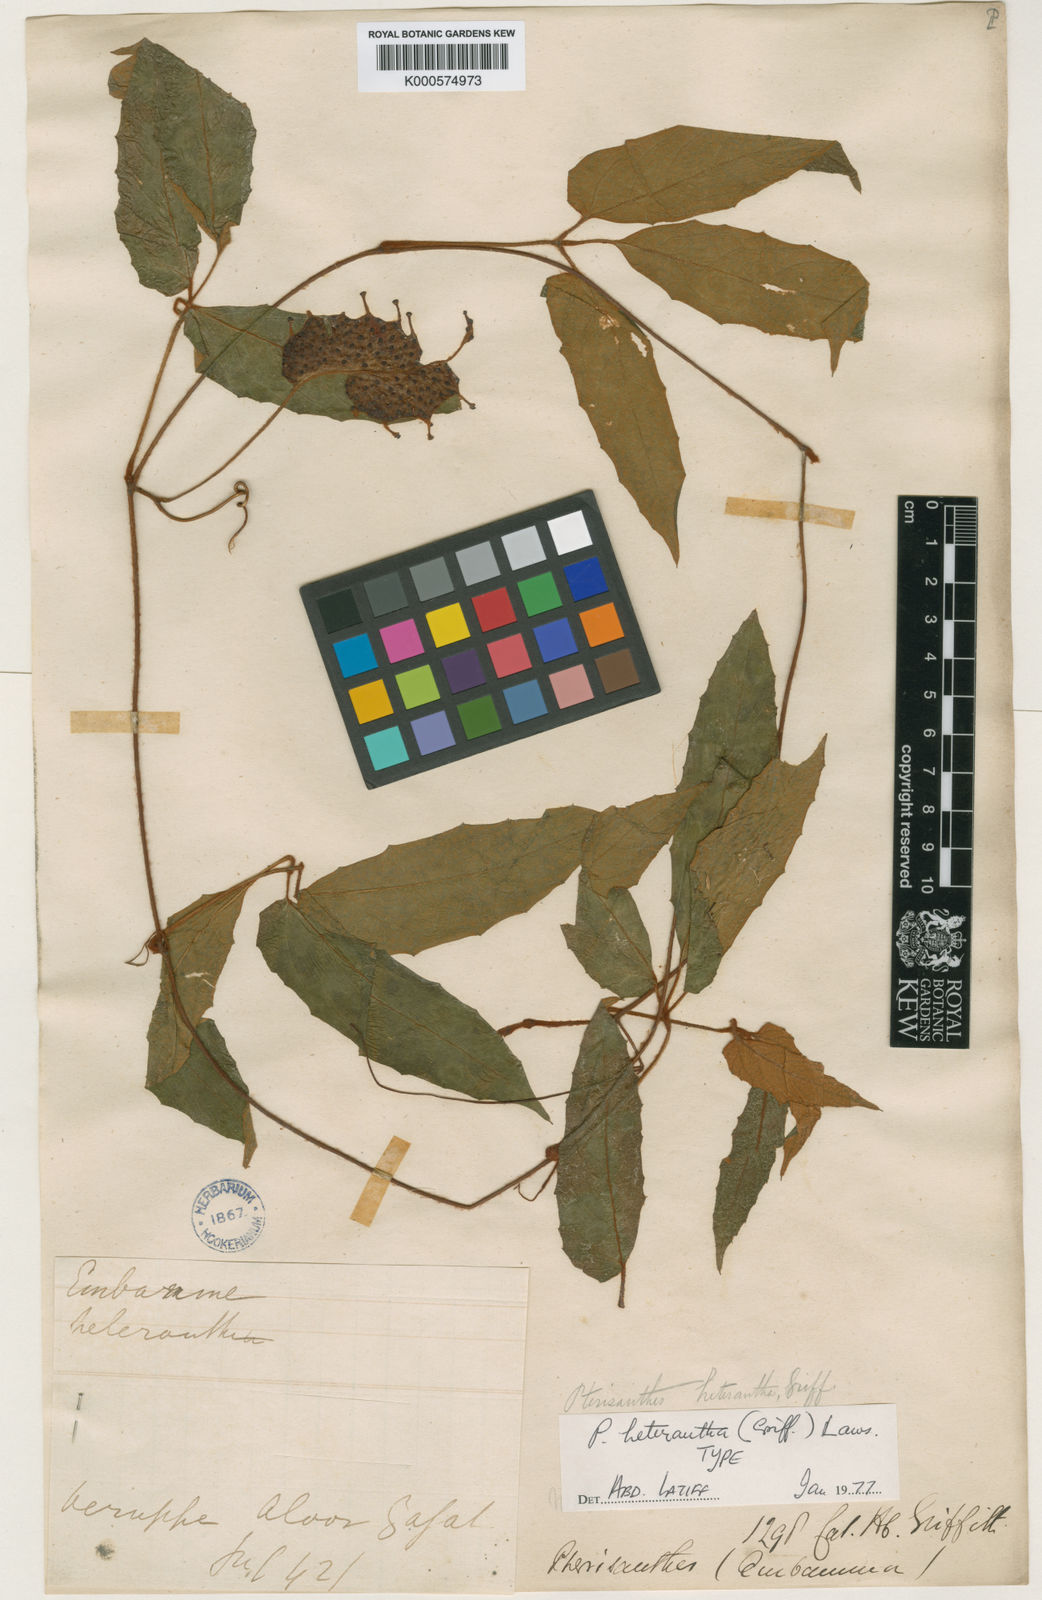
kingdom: Plantae
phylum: Tracheophyta
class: Magnoliopsida
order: Vitales
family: Vitaceae
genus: Pterisanthes
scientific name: Pterisanthes heterantha
